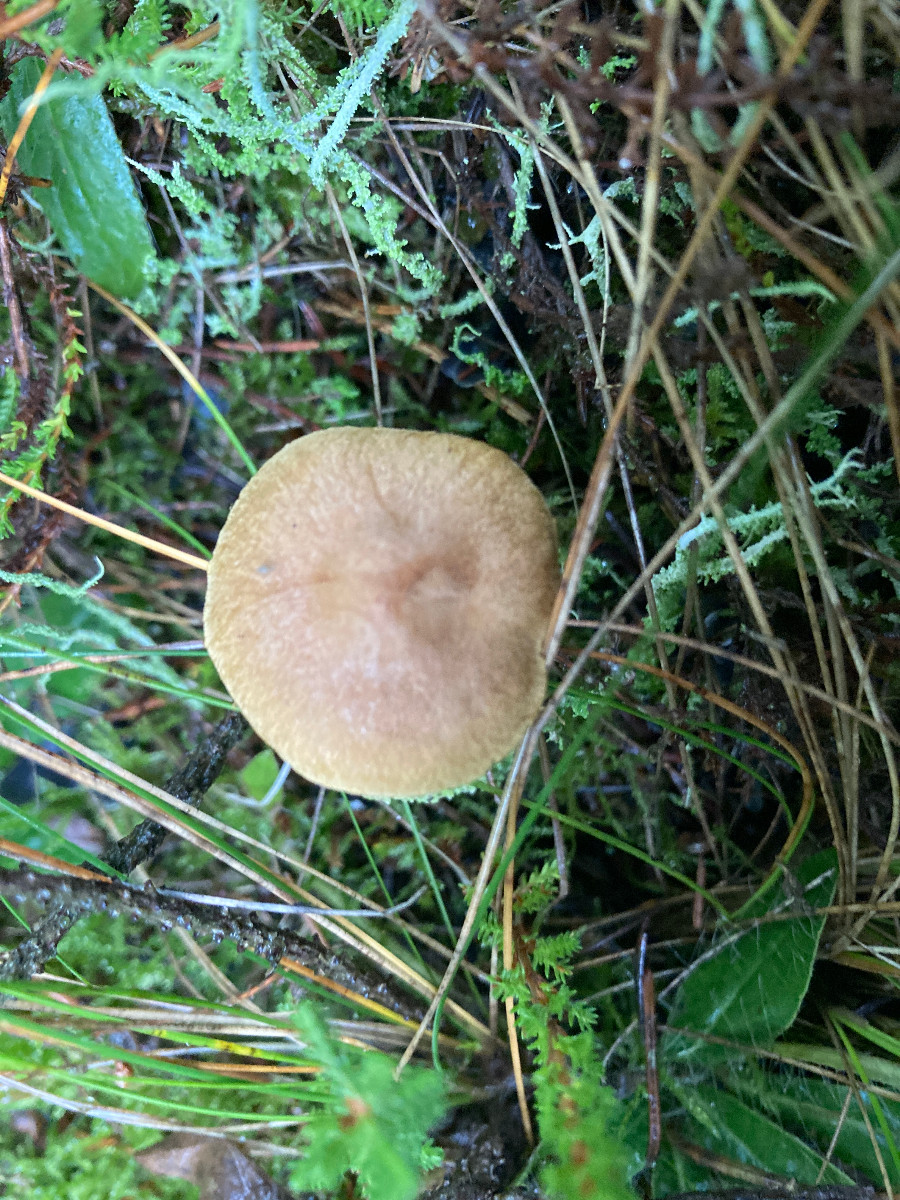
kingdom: Fungi
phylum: Basidiomycota
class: Agaricomycetes
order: Agaricales
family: Cortinariaceae
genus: Cortinarius
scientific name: Cortinarius
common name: gulbladet slørhat
